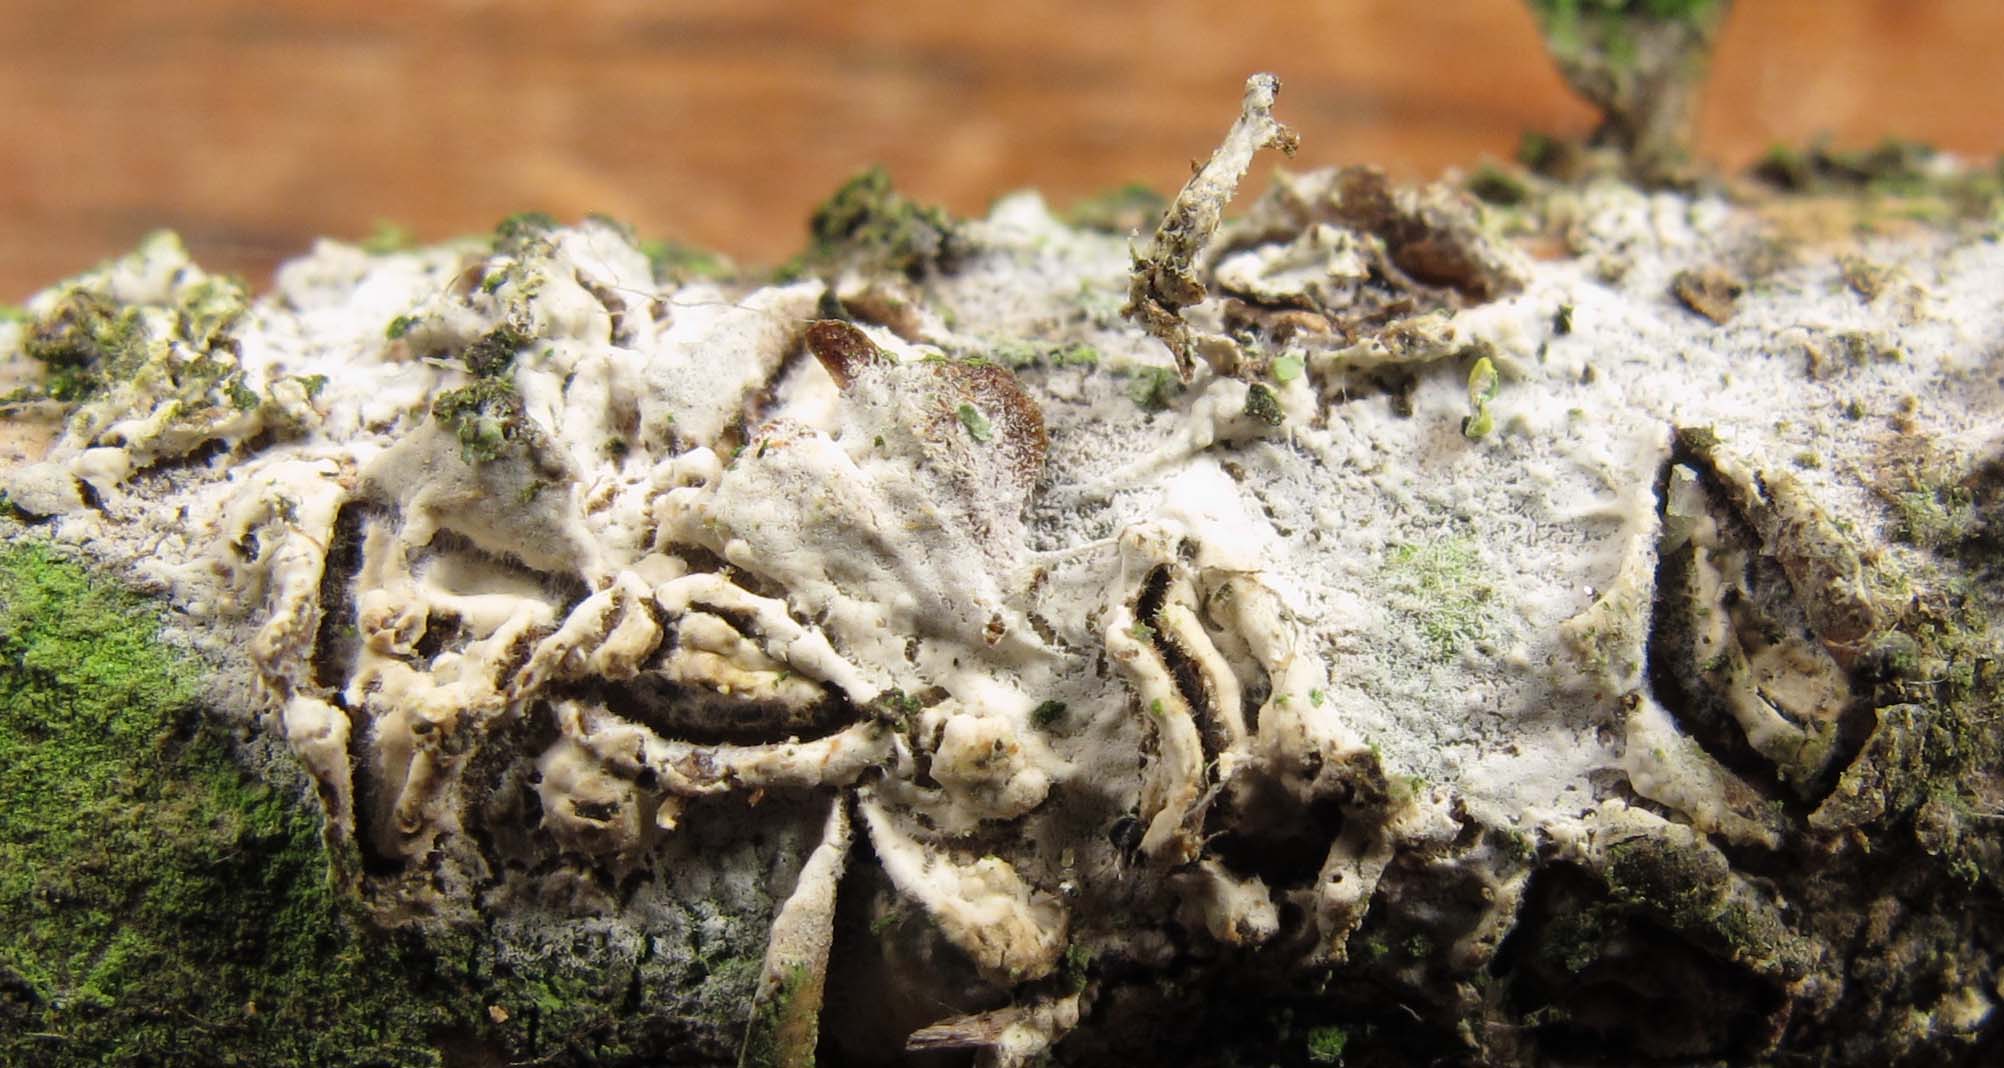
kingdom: Fungi
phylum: Basidiomycota
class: Agaricomycetes
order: Polyporales
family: Hyphodermataceae
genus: Hyphoderma
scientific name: Hyphoderma roseocremeum
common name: lillaplettet kalkskind
